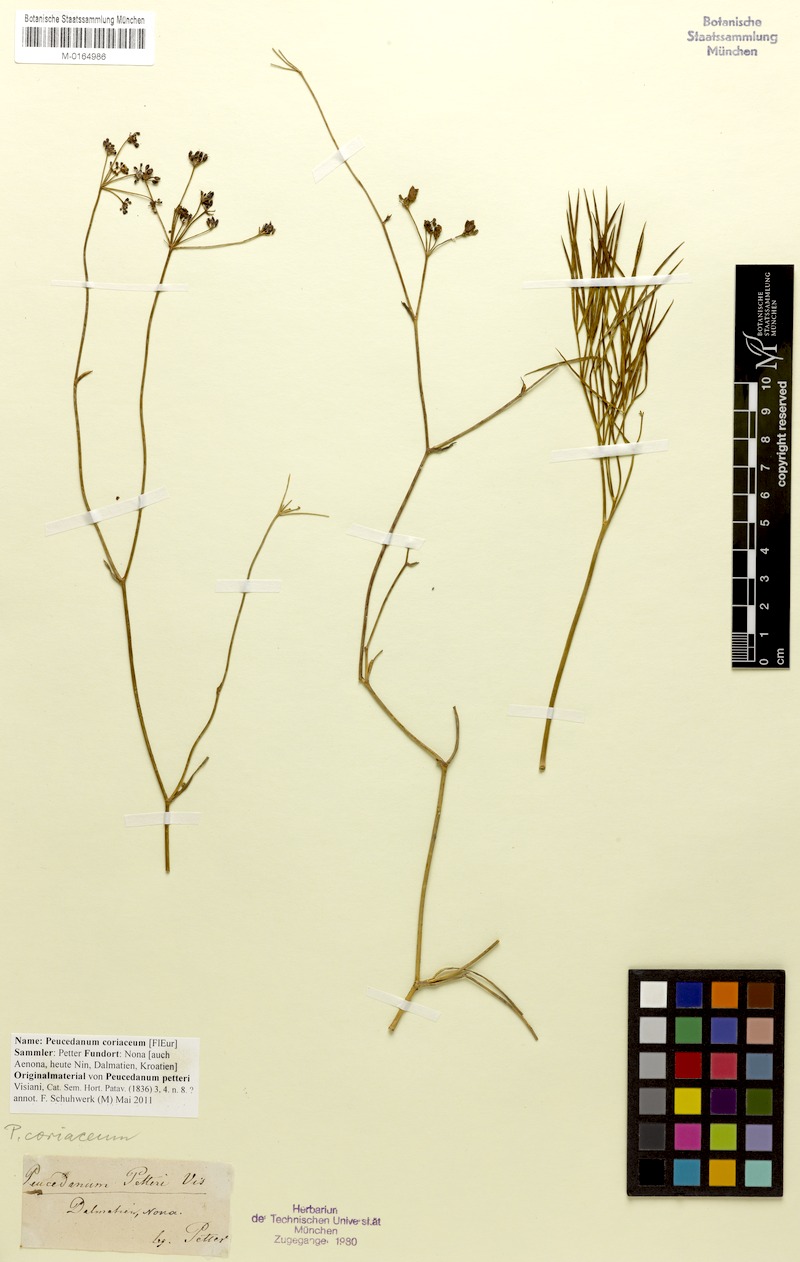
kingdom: Plantae
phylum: Tracheophyta
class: Magnoliopsida
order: Apiales
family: Apiaceae
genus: Peucedanum
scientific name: Peucedanum coriaceum
